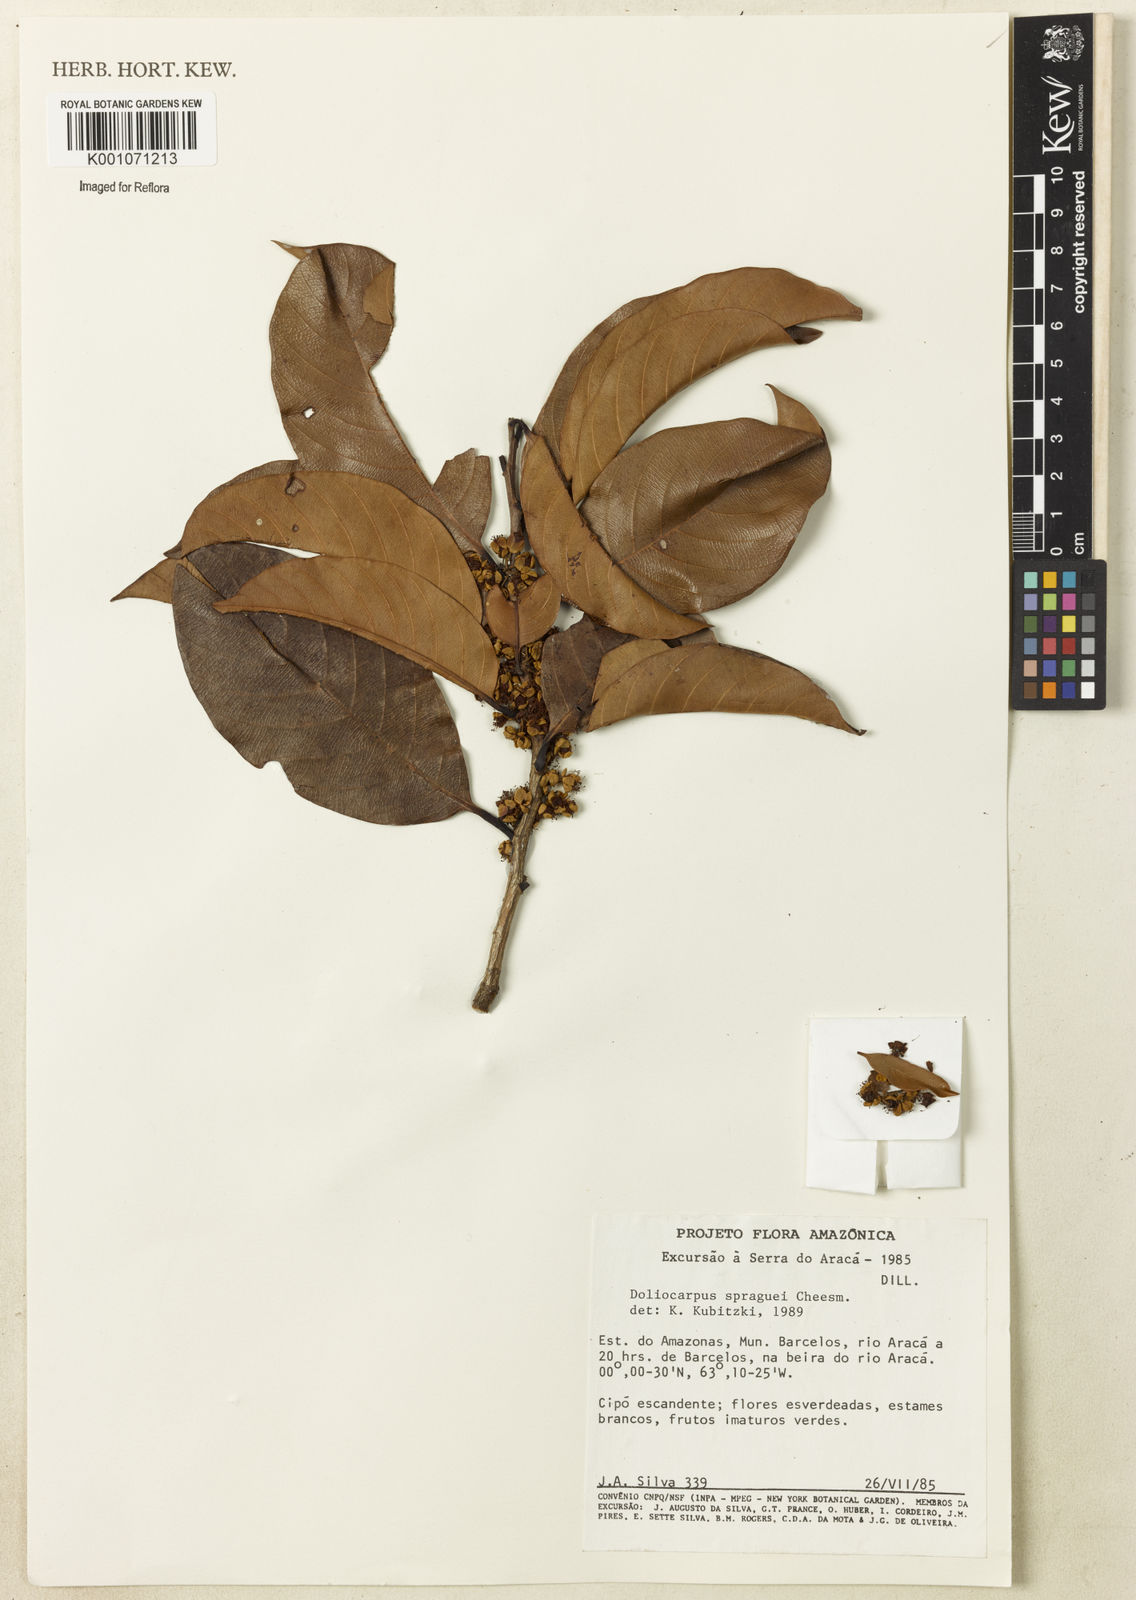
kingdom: Plantae
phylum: Tracheophyta
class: Magnoliopsida
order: Dilleniales
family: Dilleniaceae
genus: Doliocarpus
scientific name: Doliocarpus spraguei
